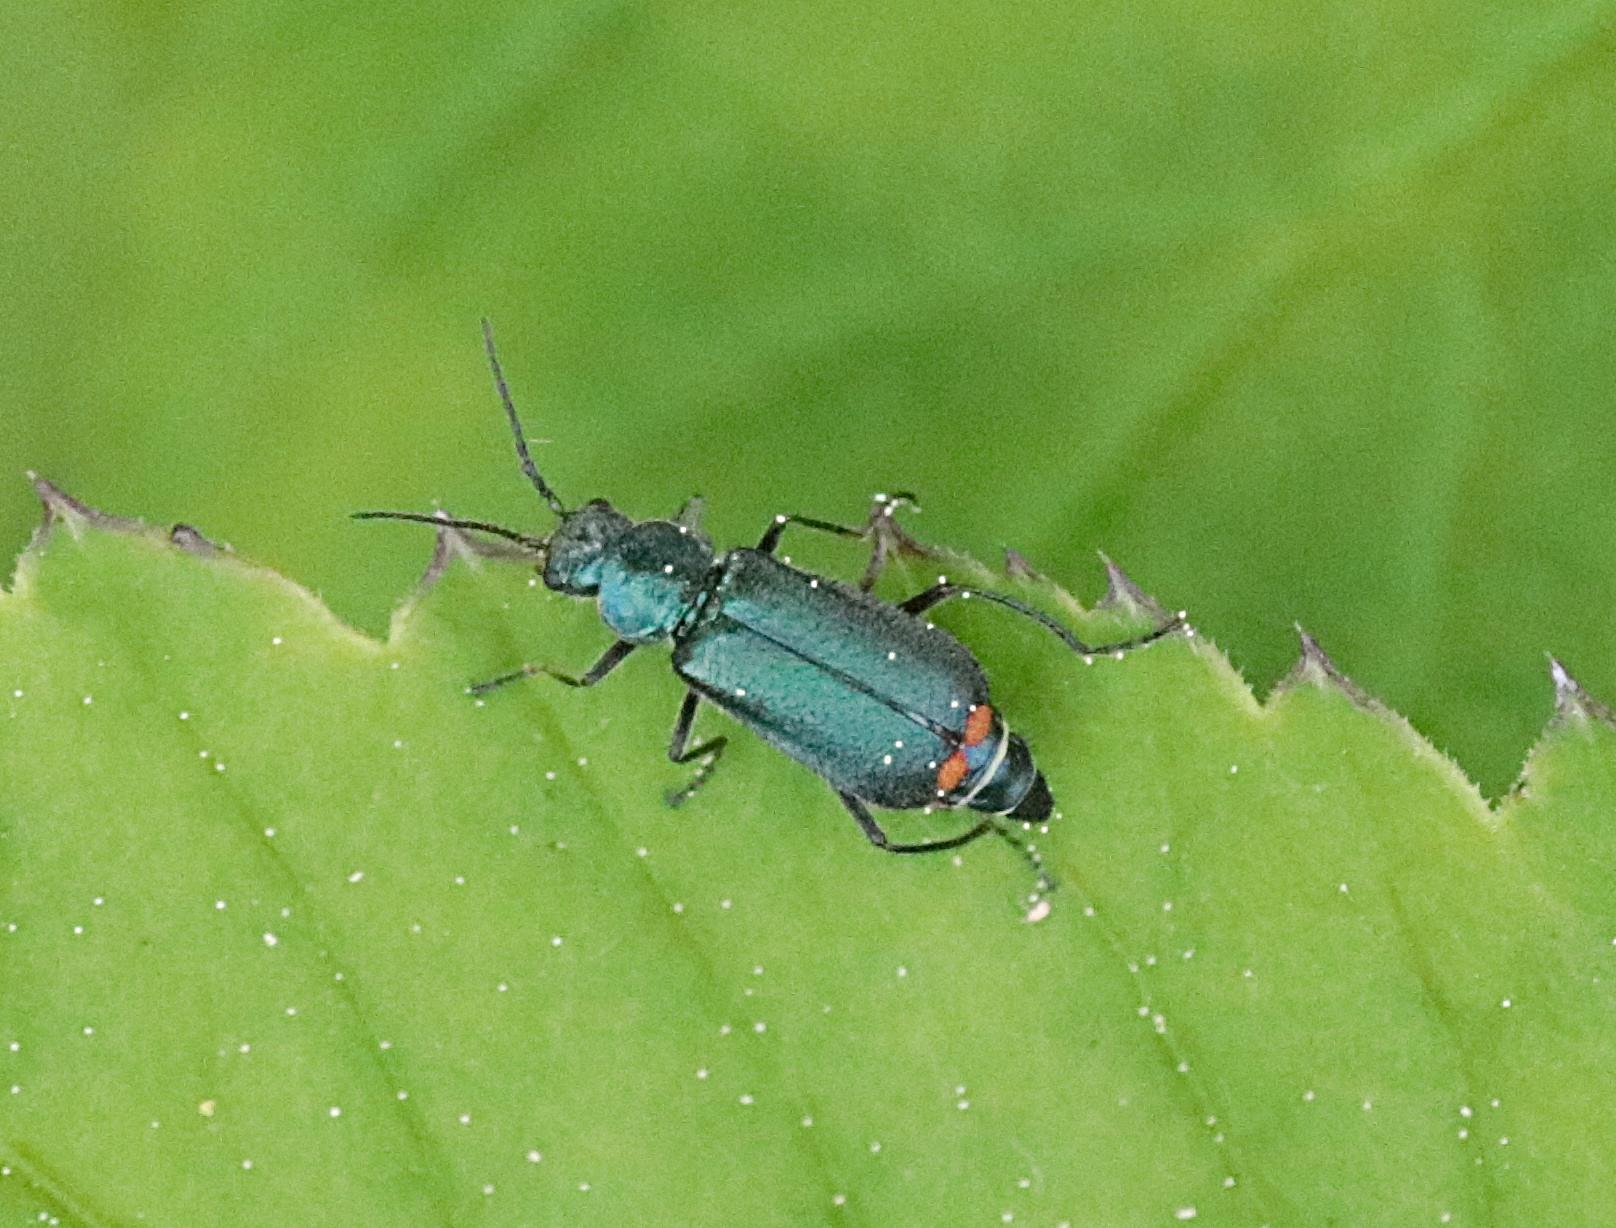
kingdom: Animalia
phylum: Arthropoda
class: Insecta
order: Coleoptera
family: Melyridae
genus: Malachius
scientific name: Malachius bipustulatus
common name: Skovmalakitbille
